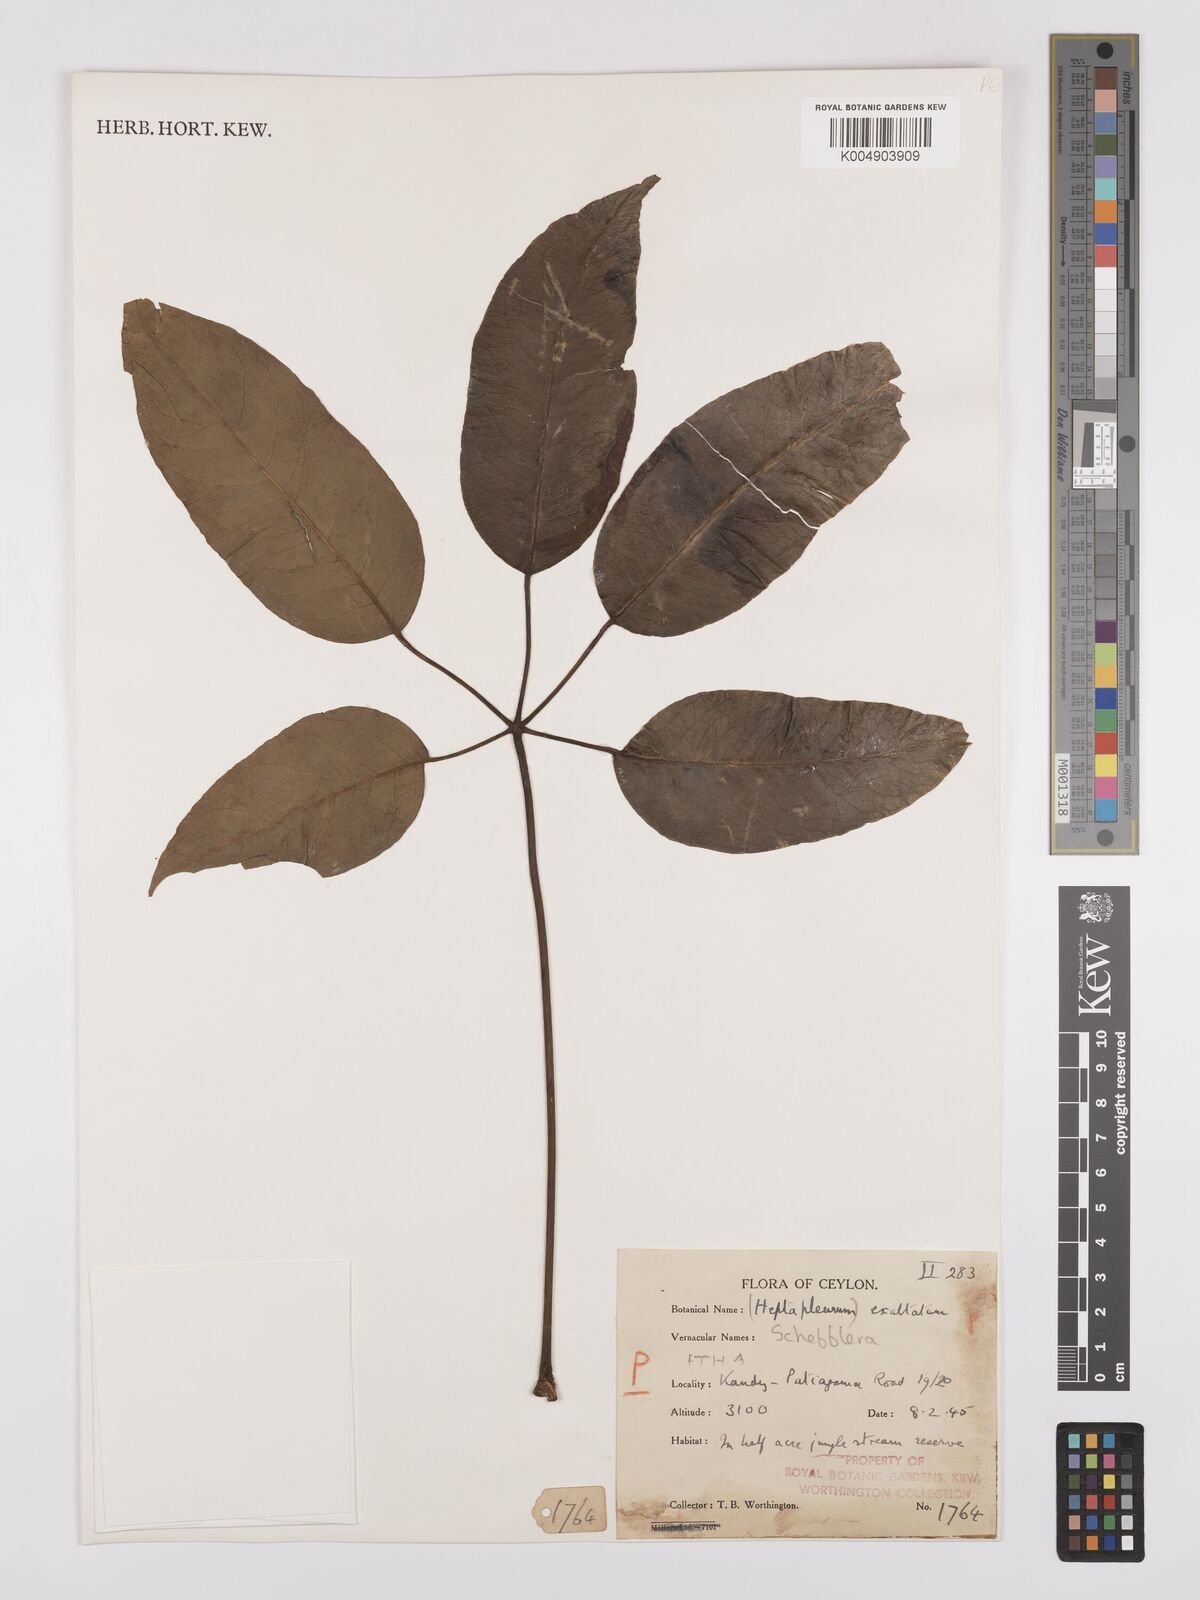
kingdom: Plantae
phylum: Tracheophyta
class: Magnoliopsida
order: Apiales
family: Araliaceae
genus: Heptapleurum
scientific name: Heptapleurum
